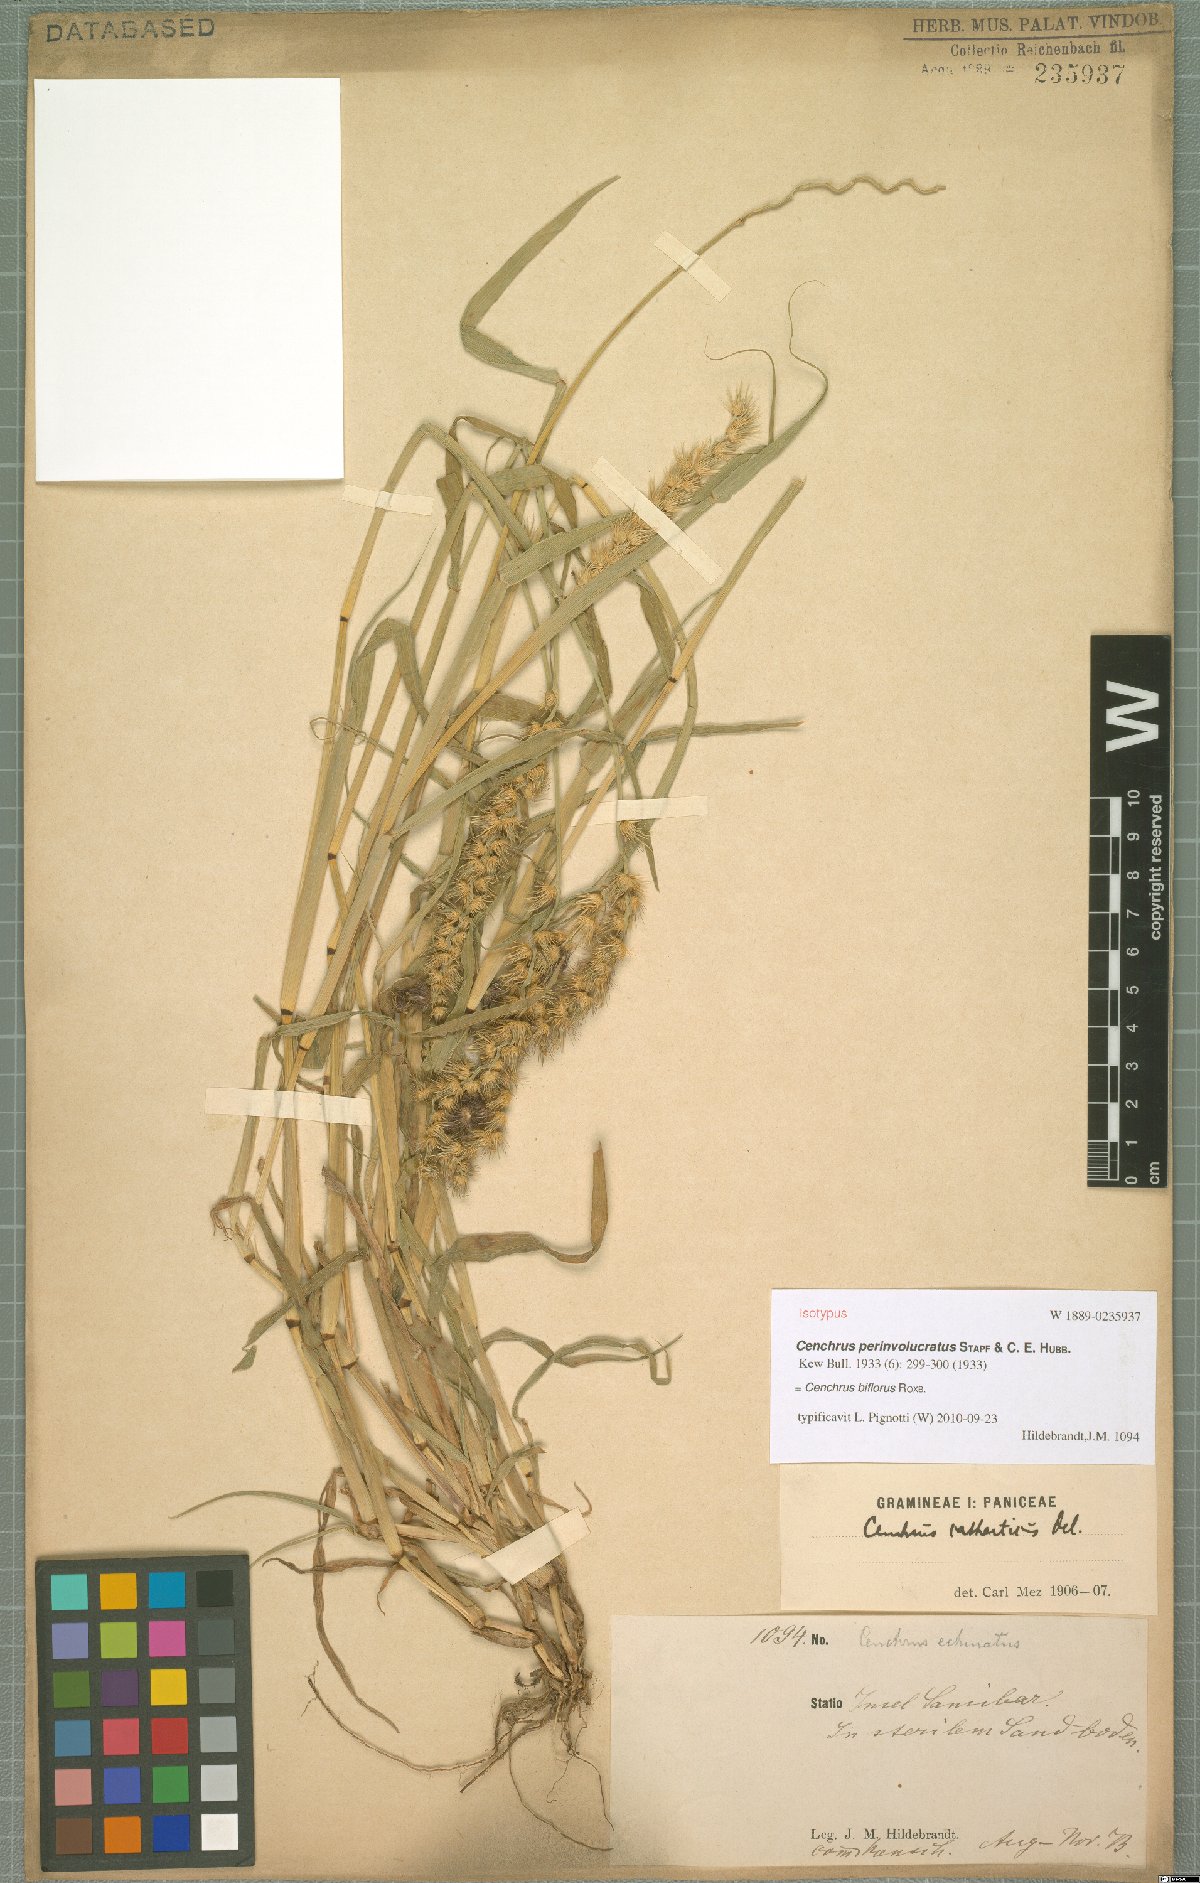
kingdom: Plantae
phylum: Tracheophyta
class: Liliopsida
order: Poales
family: Poaceae
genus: Cenchrus
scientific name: Cenchrus biflorus
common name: Indian sandbur
